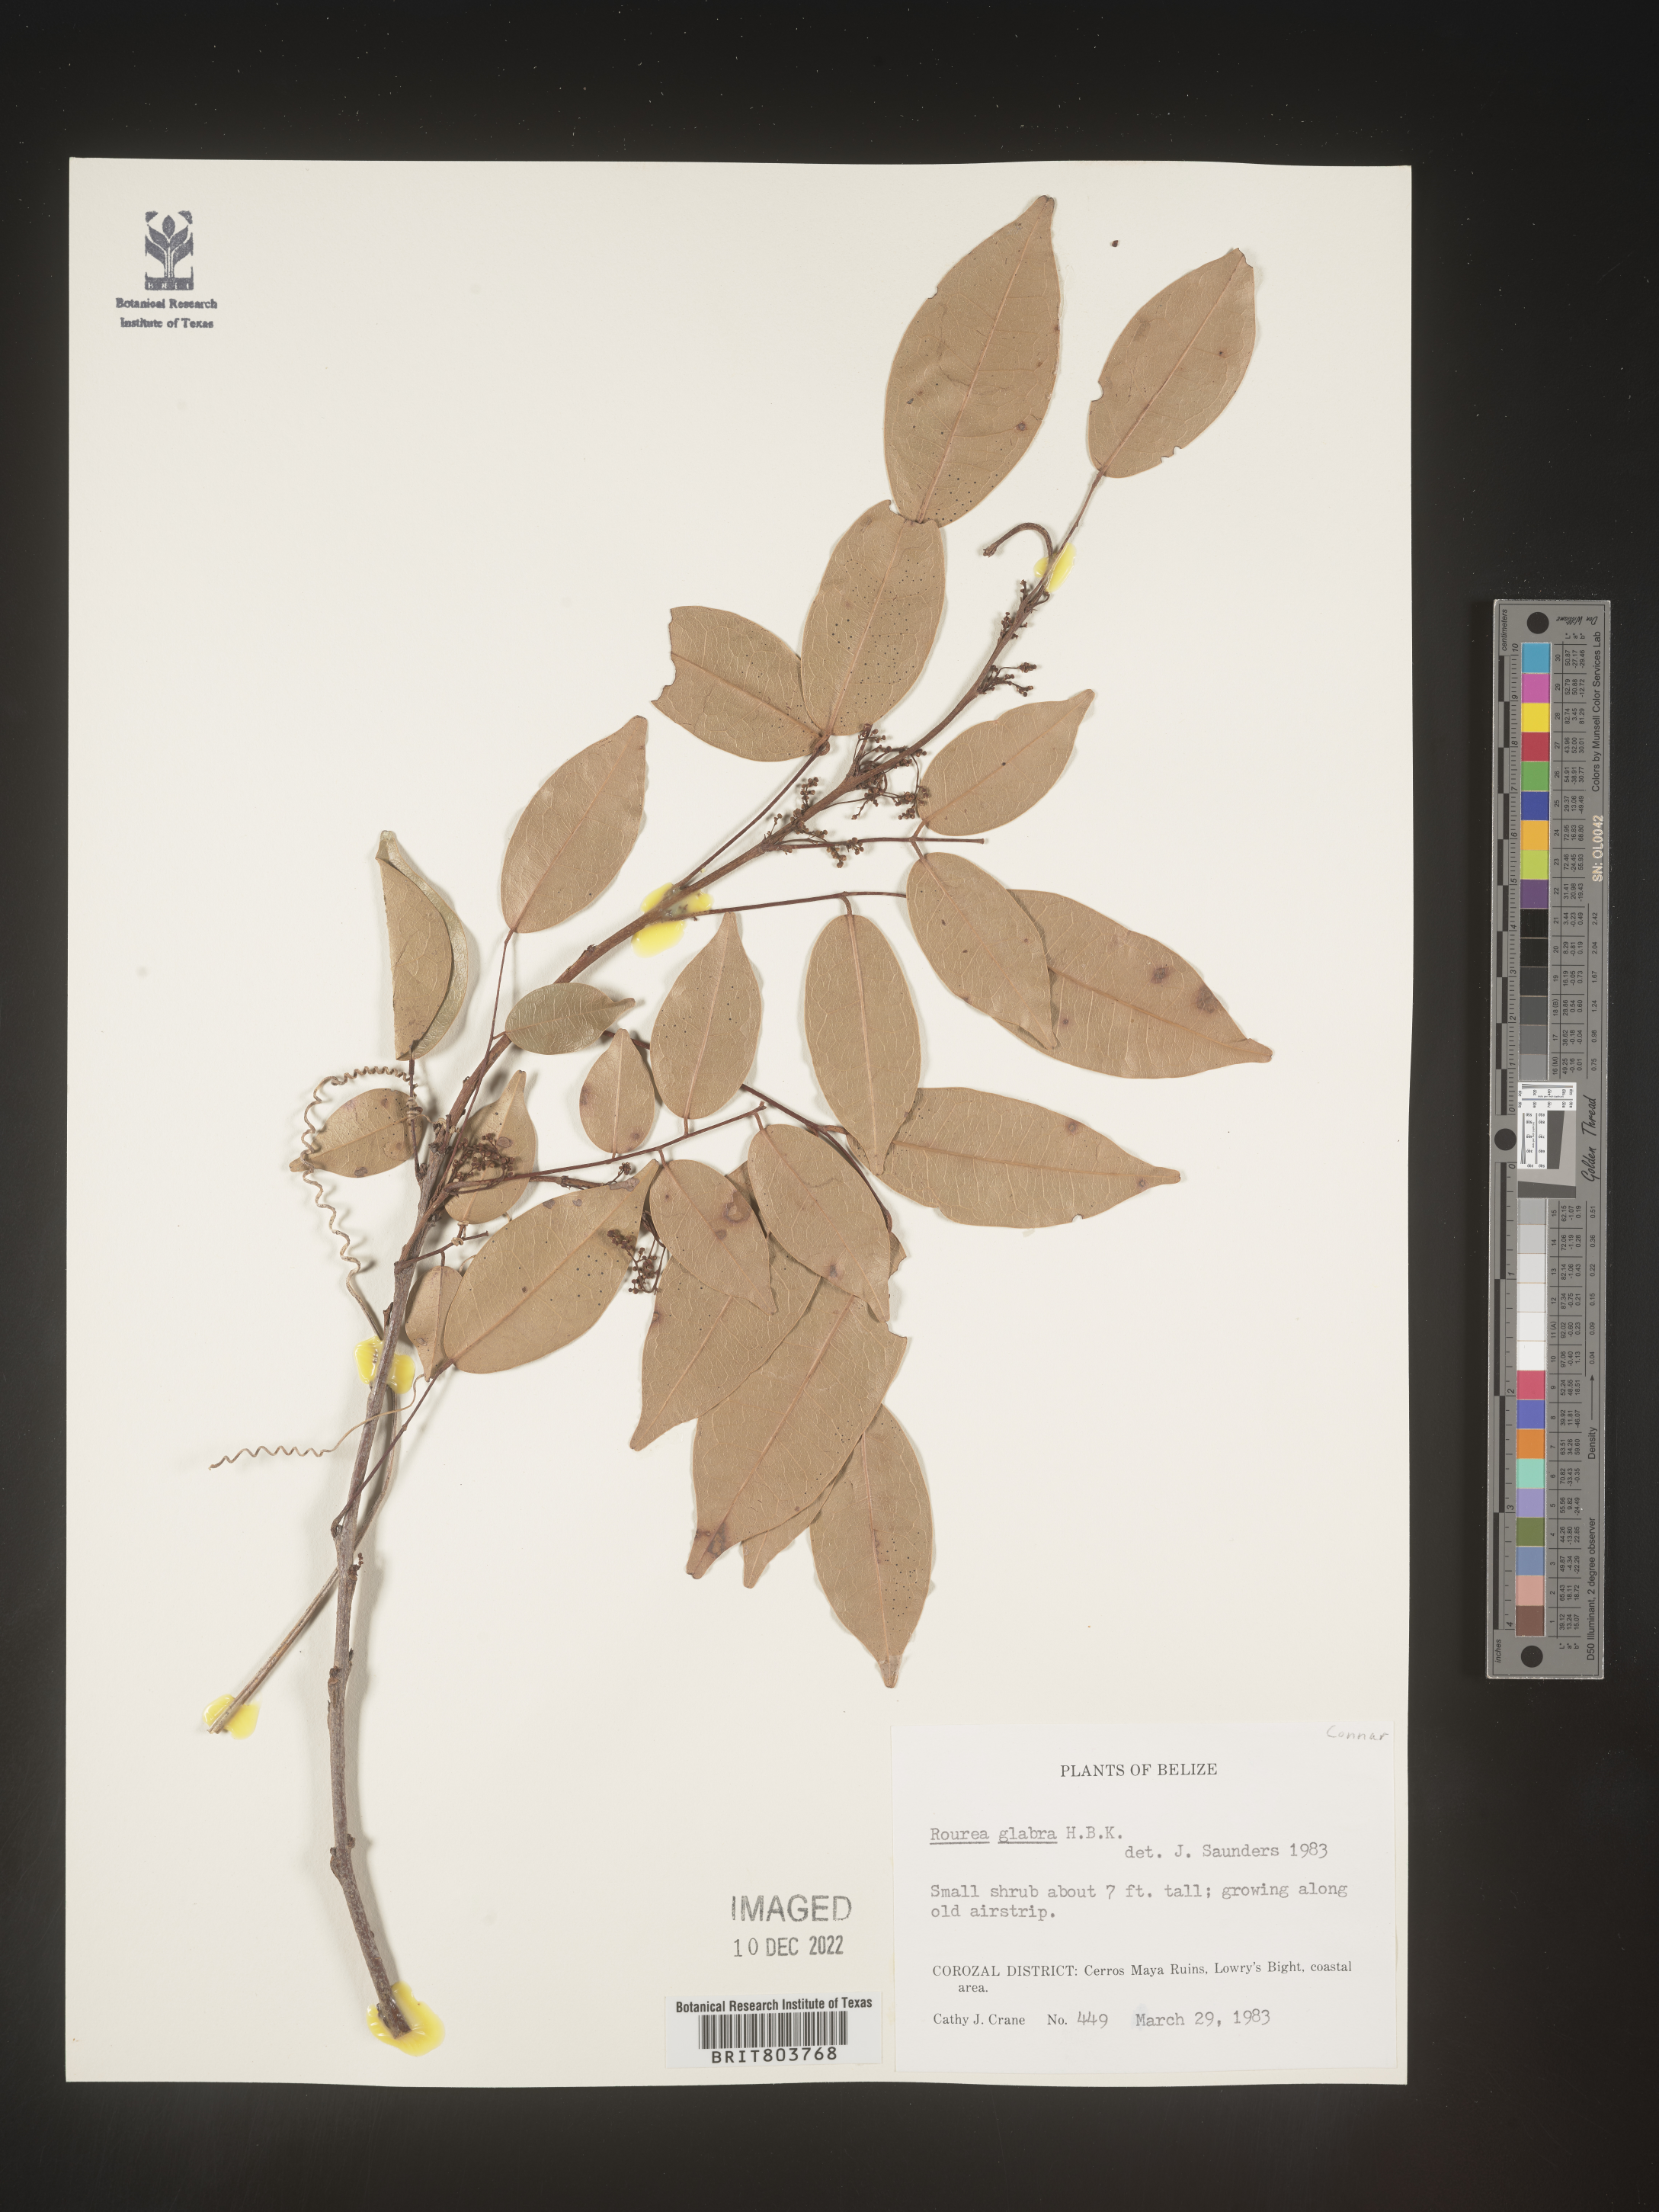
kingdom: Plantae
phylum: Tracheophyta
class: Magnoliopsida
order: Oxalidales
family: Connaraceae
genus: Rourea
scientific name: Rourea
